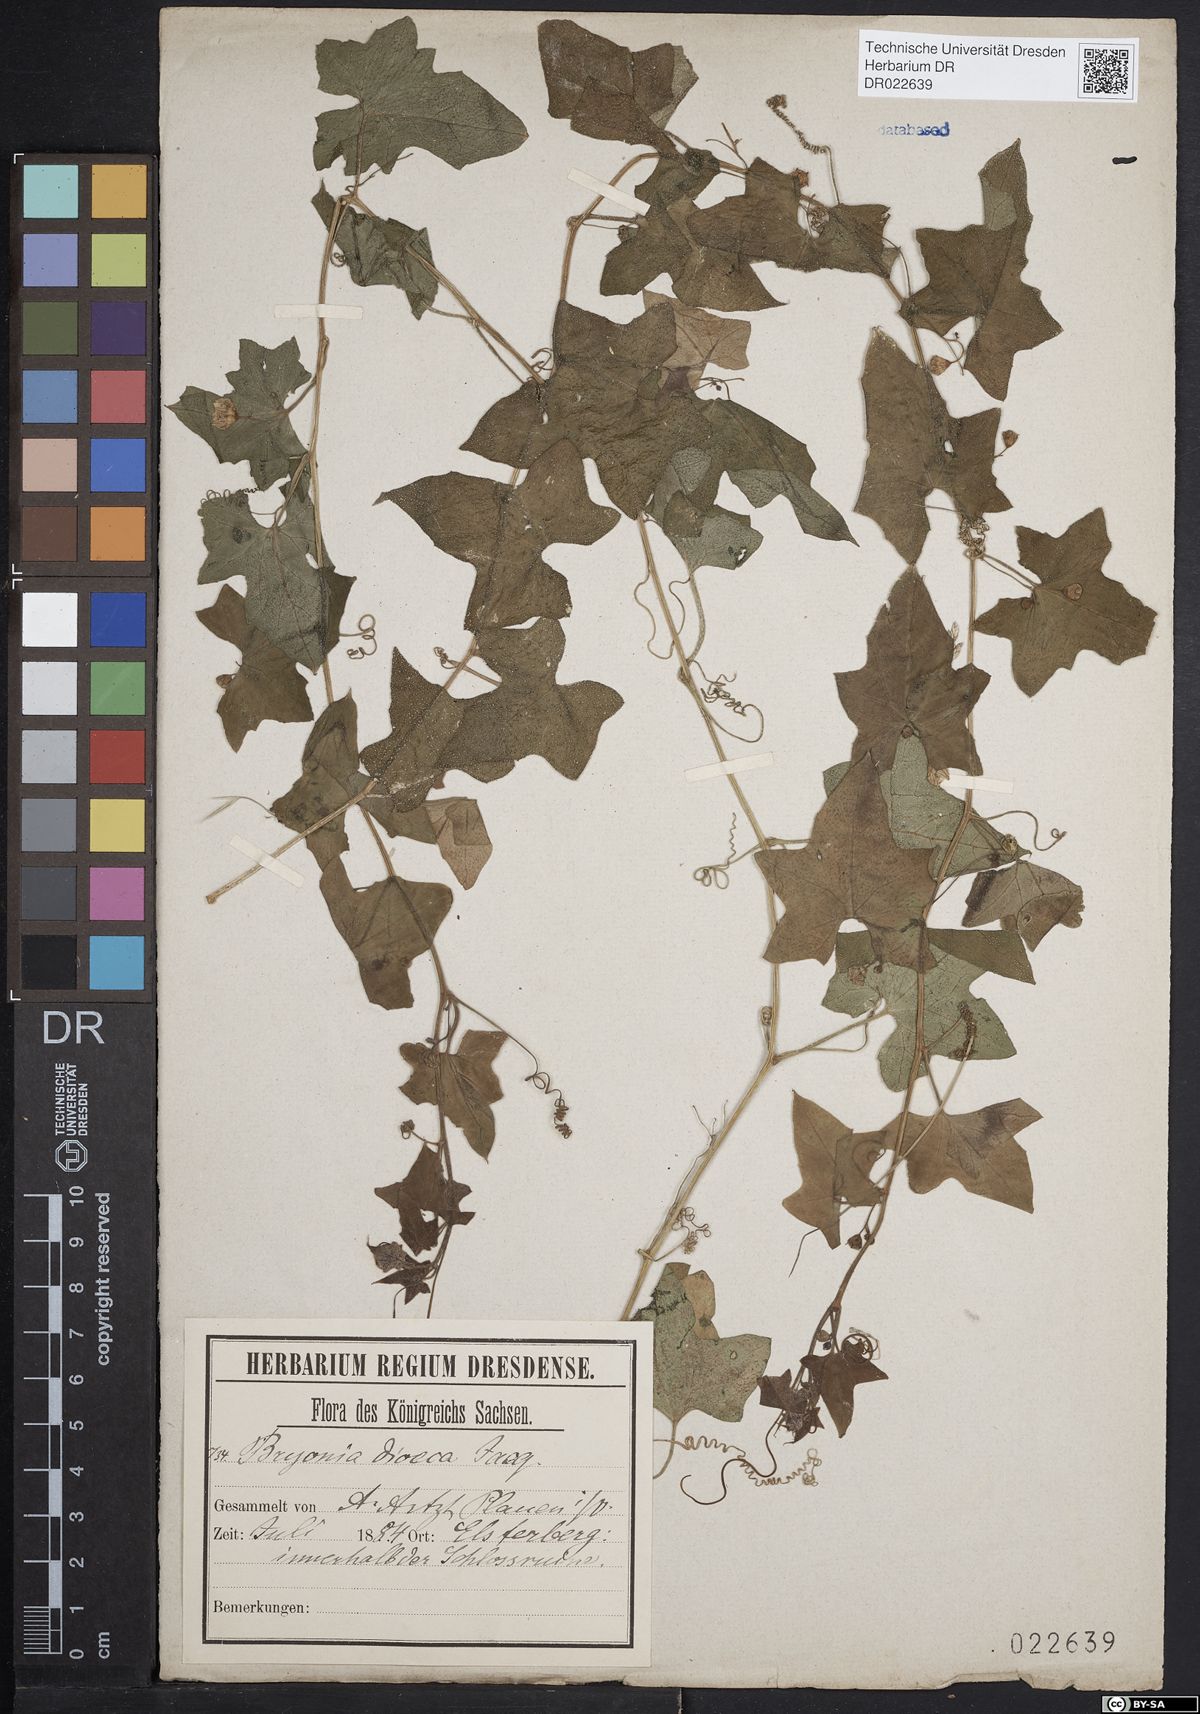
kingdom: Plantae
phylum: Tracheophyta
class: Magnoliopsida
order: Cucurbitales
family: Cucurbitaceae
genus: Bryonia
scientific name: Bryonia dioica
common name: White bryony
